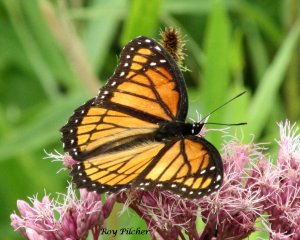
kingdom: Animalia
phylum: Arthropoda
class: Insecta
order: Lepidoptera
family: Nymphalidae
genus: Limenitis
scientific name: Limenitis archippus
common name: Viceroy
